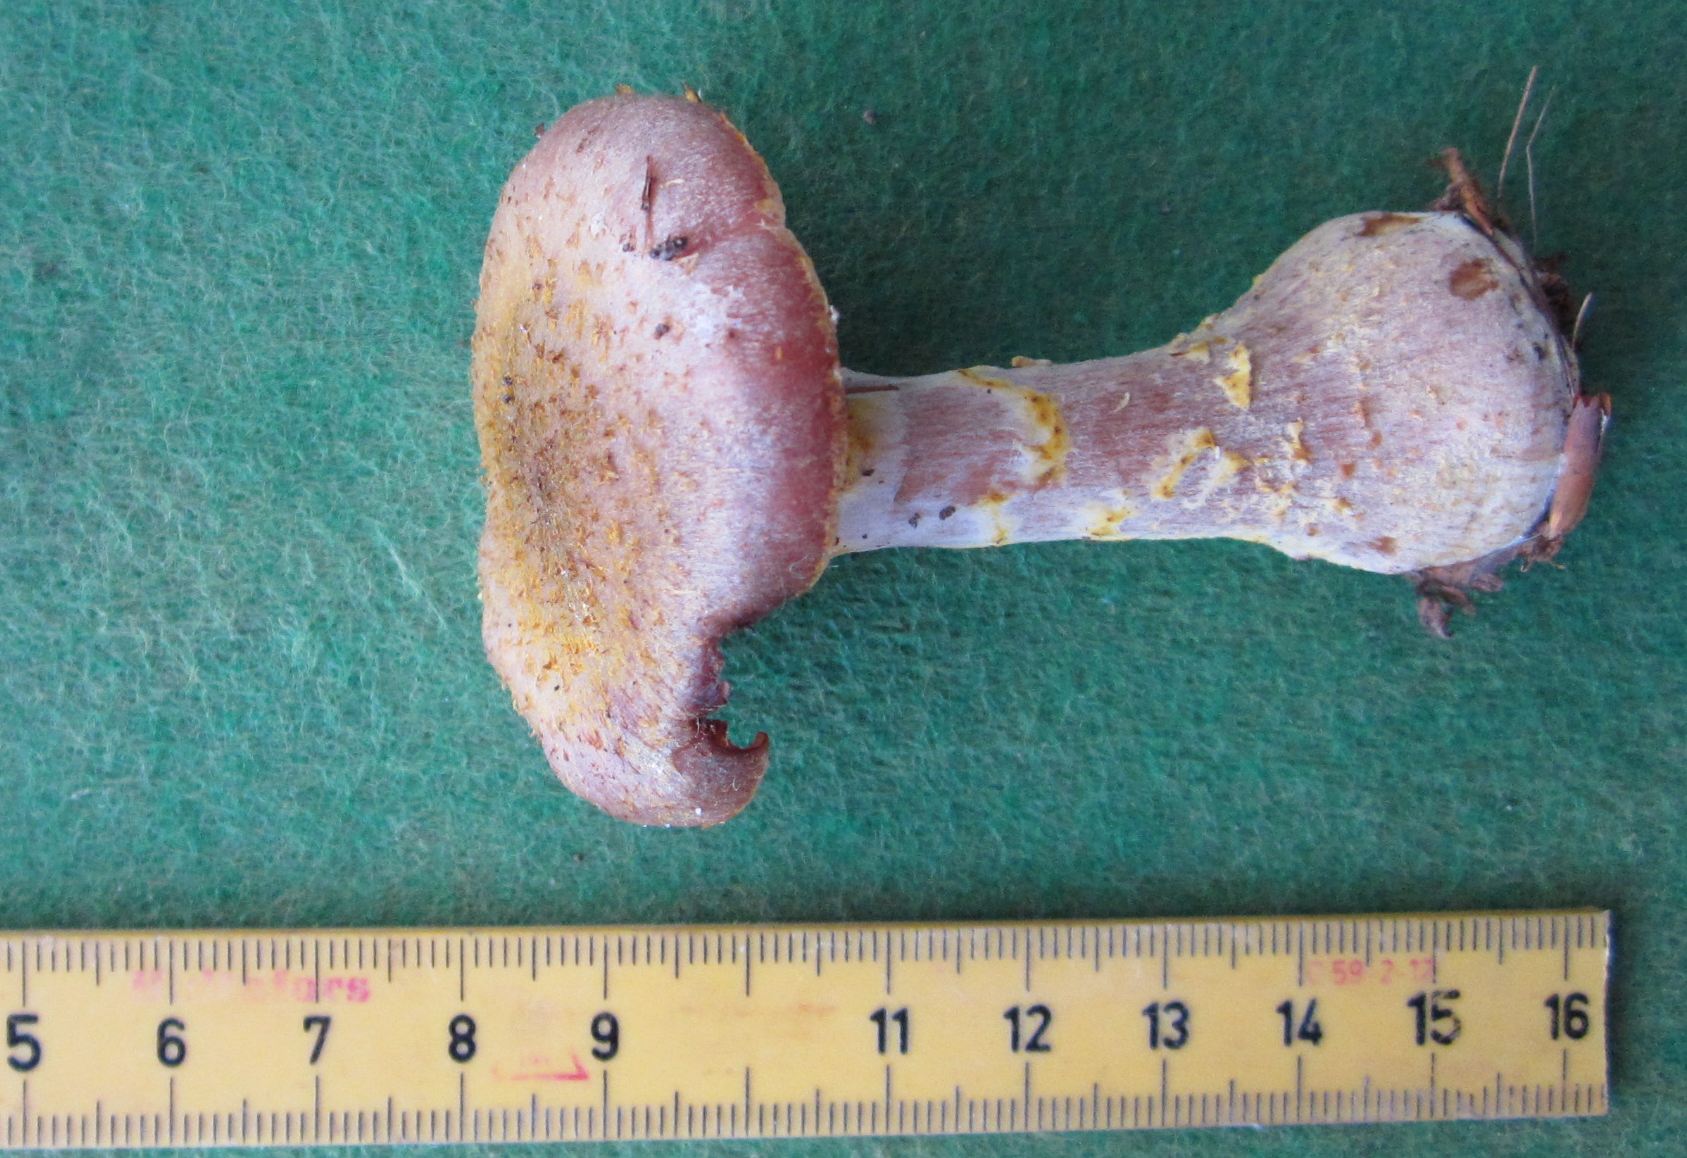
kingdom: Fungi
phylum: Basidiomycota
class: Agaricomycetes
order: Agaricales
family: Physalacriaceae
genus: Armillaria
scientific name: Armillaria lutea
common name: køllestokket honningsvamp
